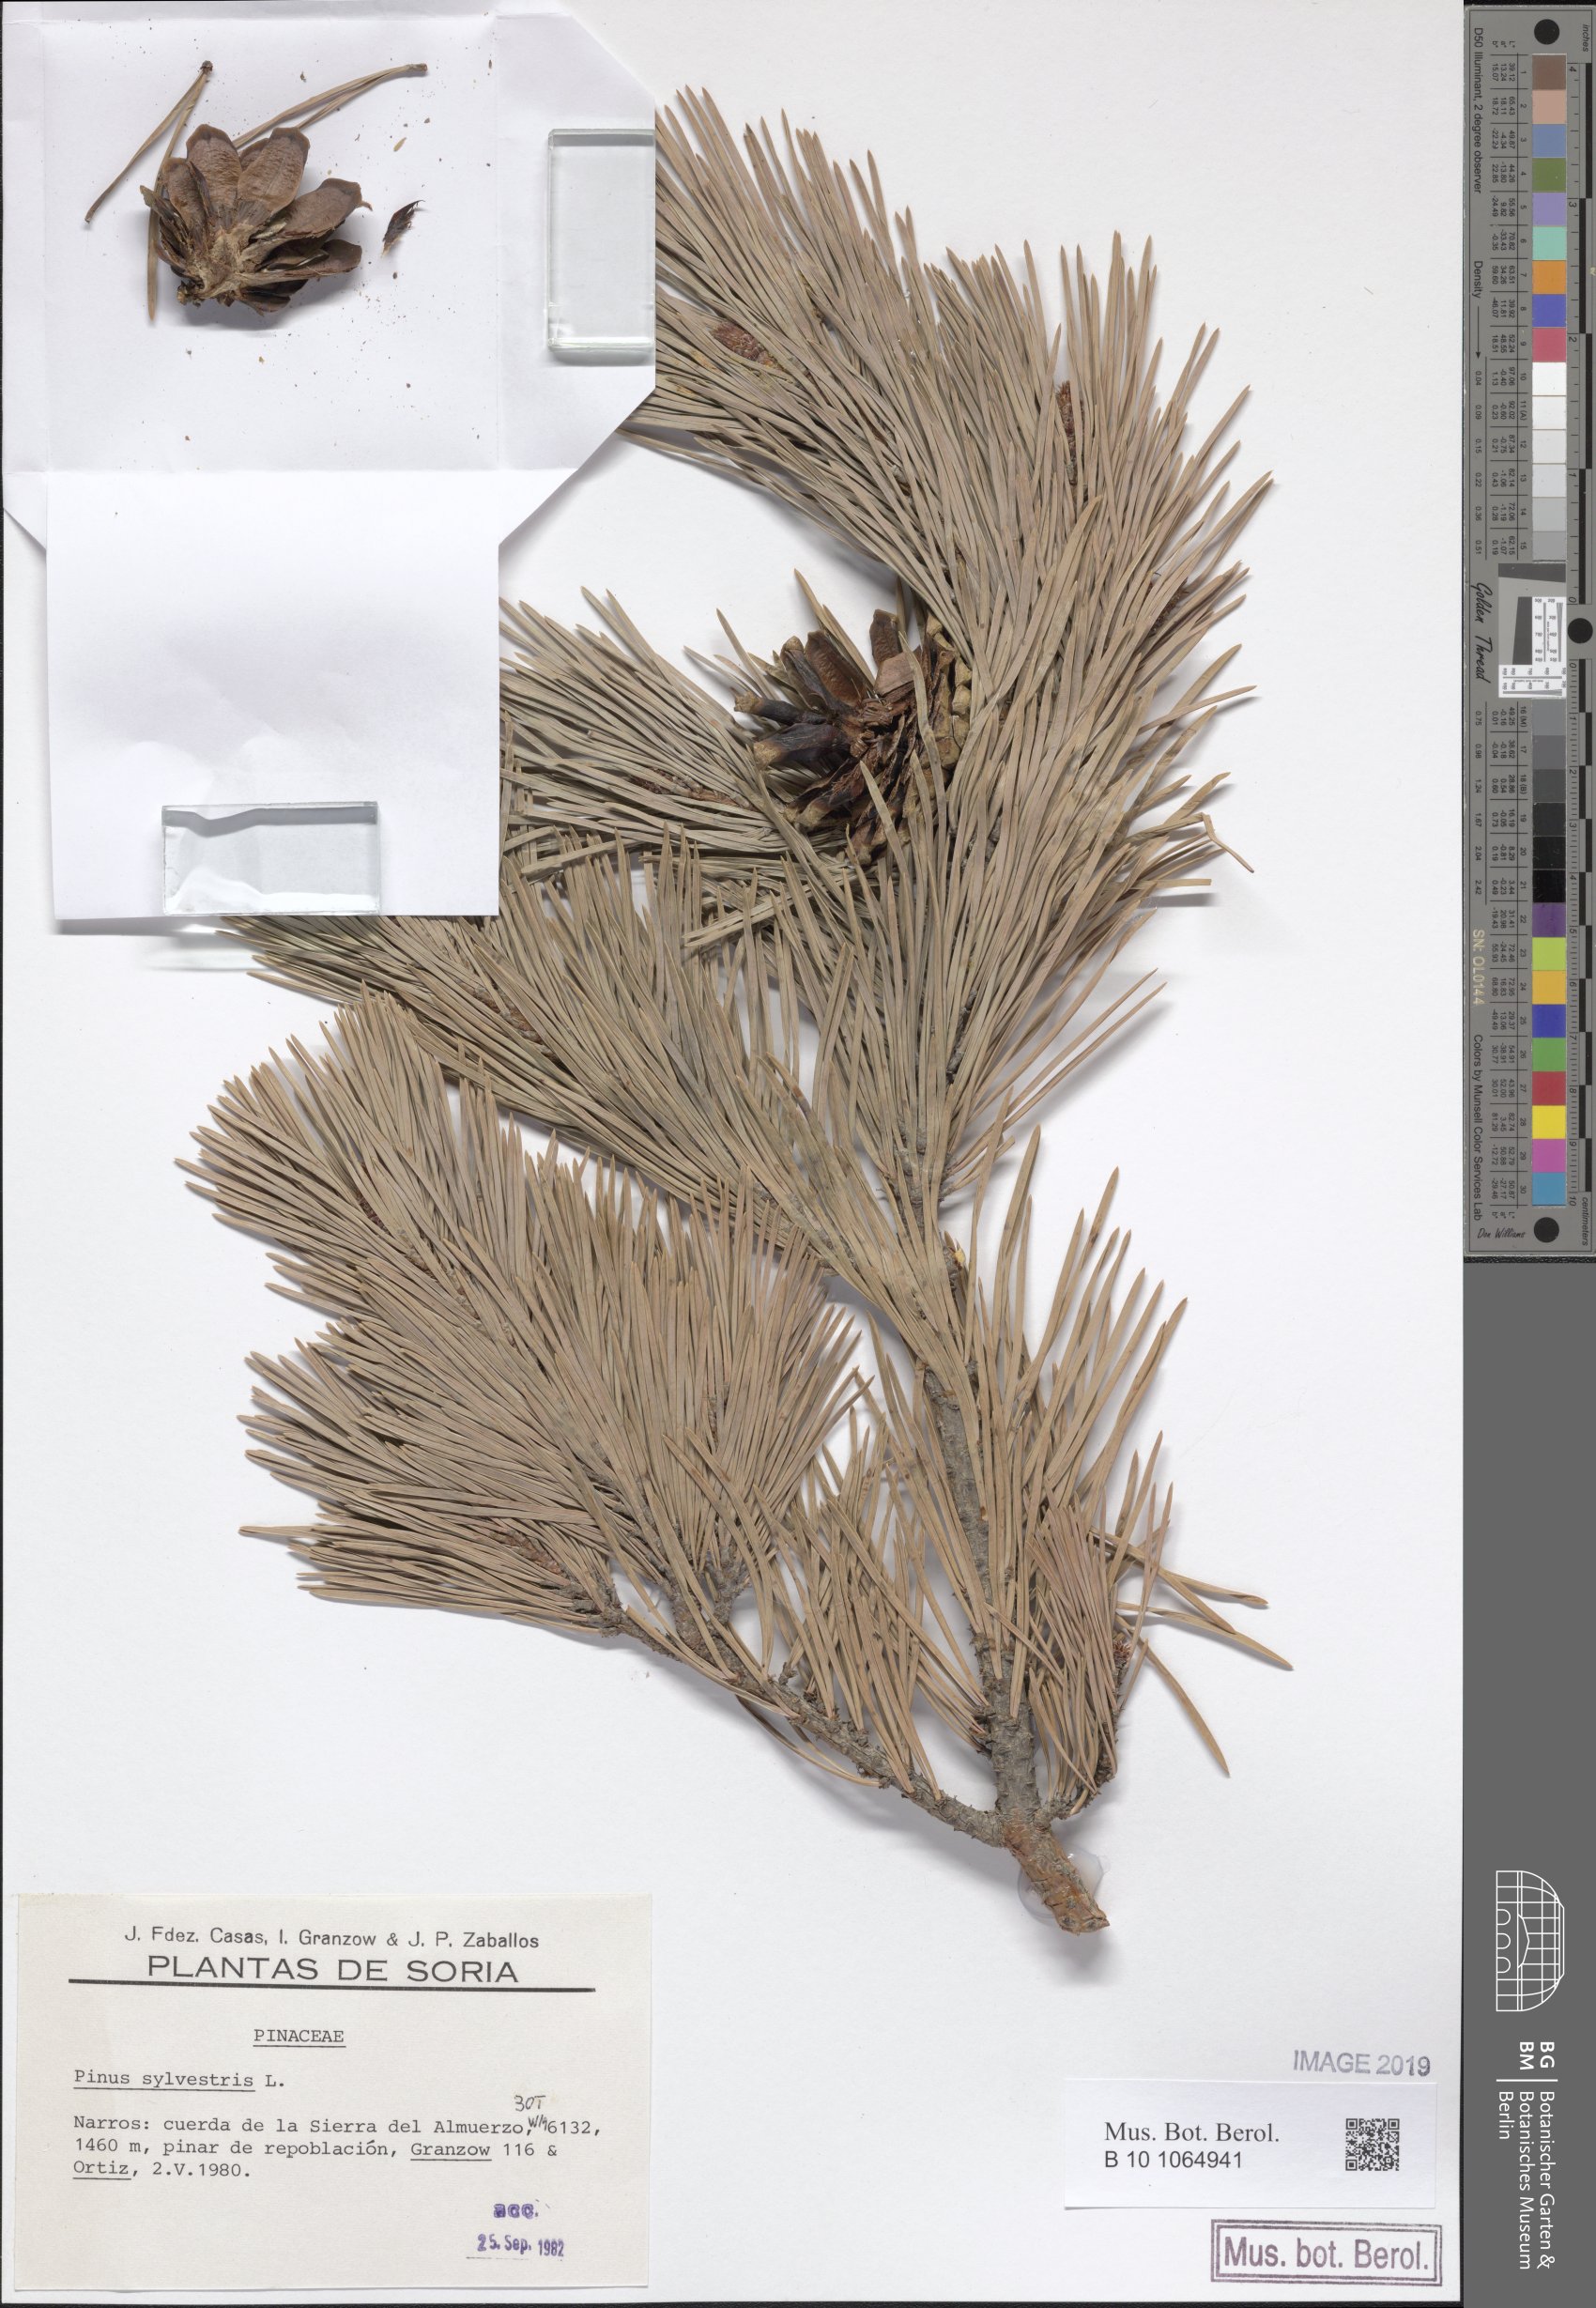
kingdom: Plantae
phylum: Tracheophyta
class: Pinopsida
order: Pinales
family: Pinaceae
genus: Pinus
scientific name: Pinus sylvestris
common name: Scots pine
